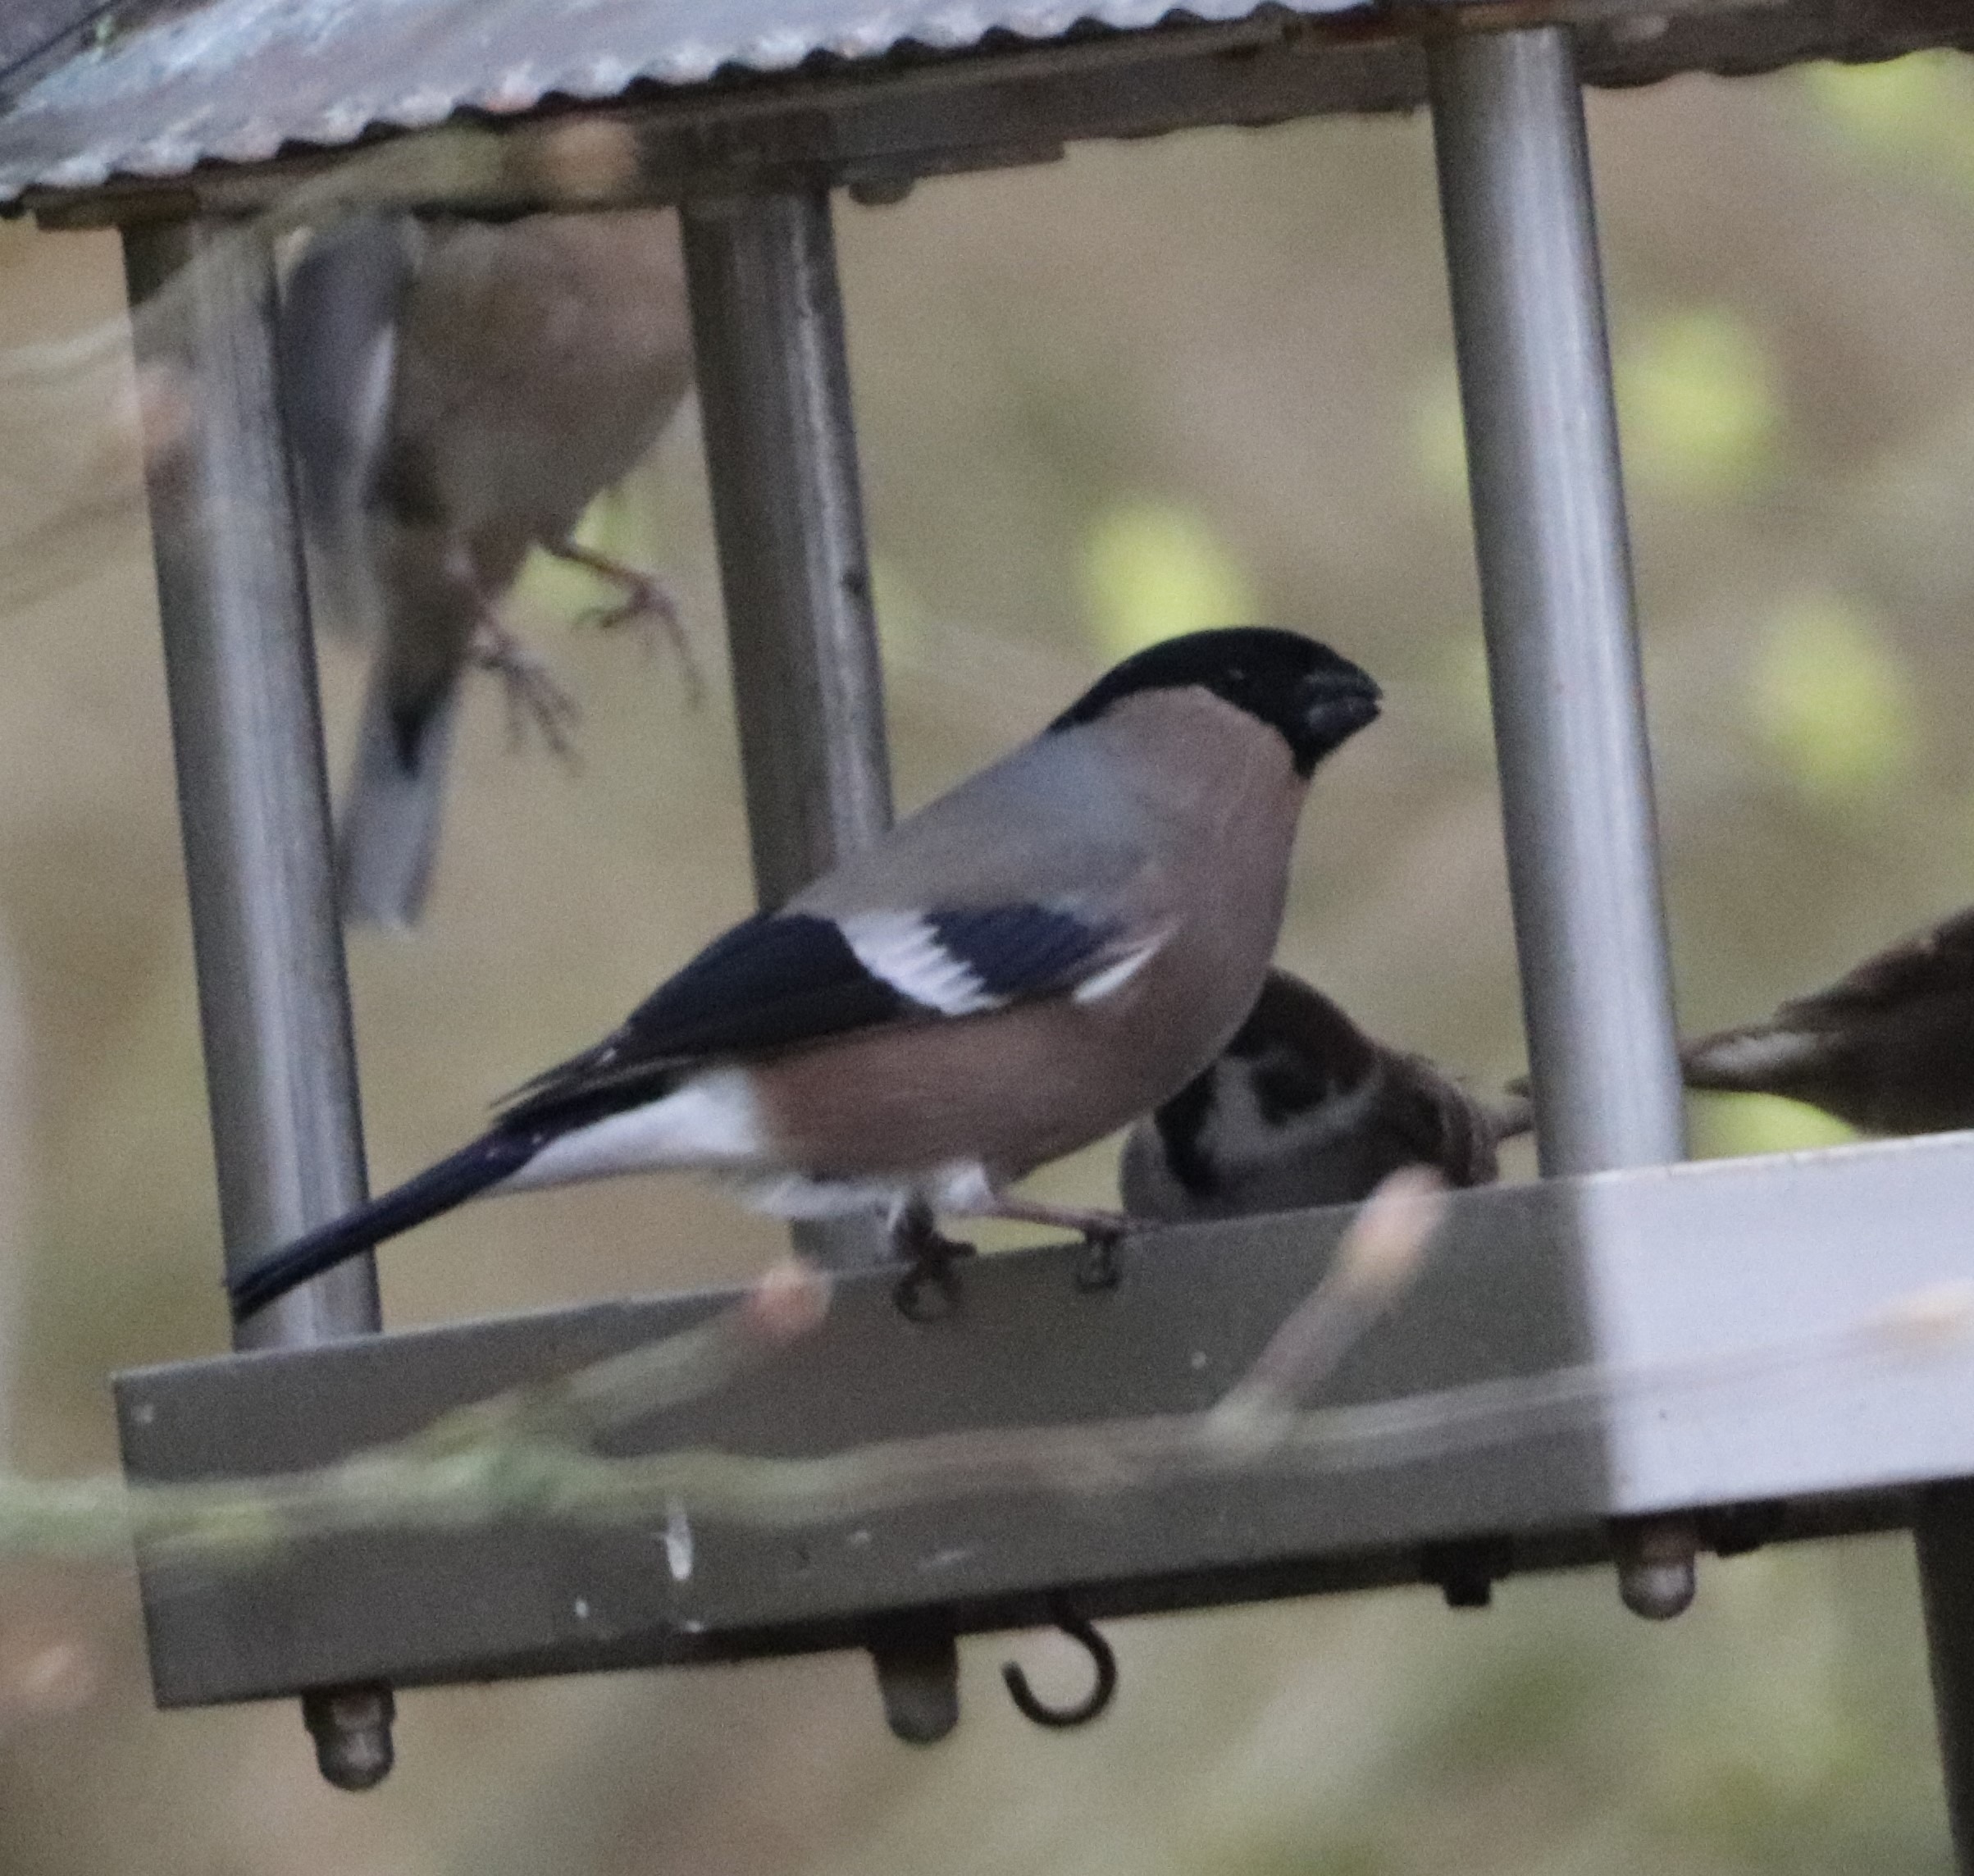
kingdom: Animalia
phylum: Chordata
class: Aves
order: Passeriformes
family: Fringillidae
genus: Pyrrhula
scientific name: Pyrrhula pyrrhula
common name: Dompap
